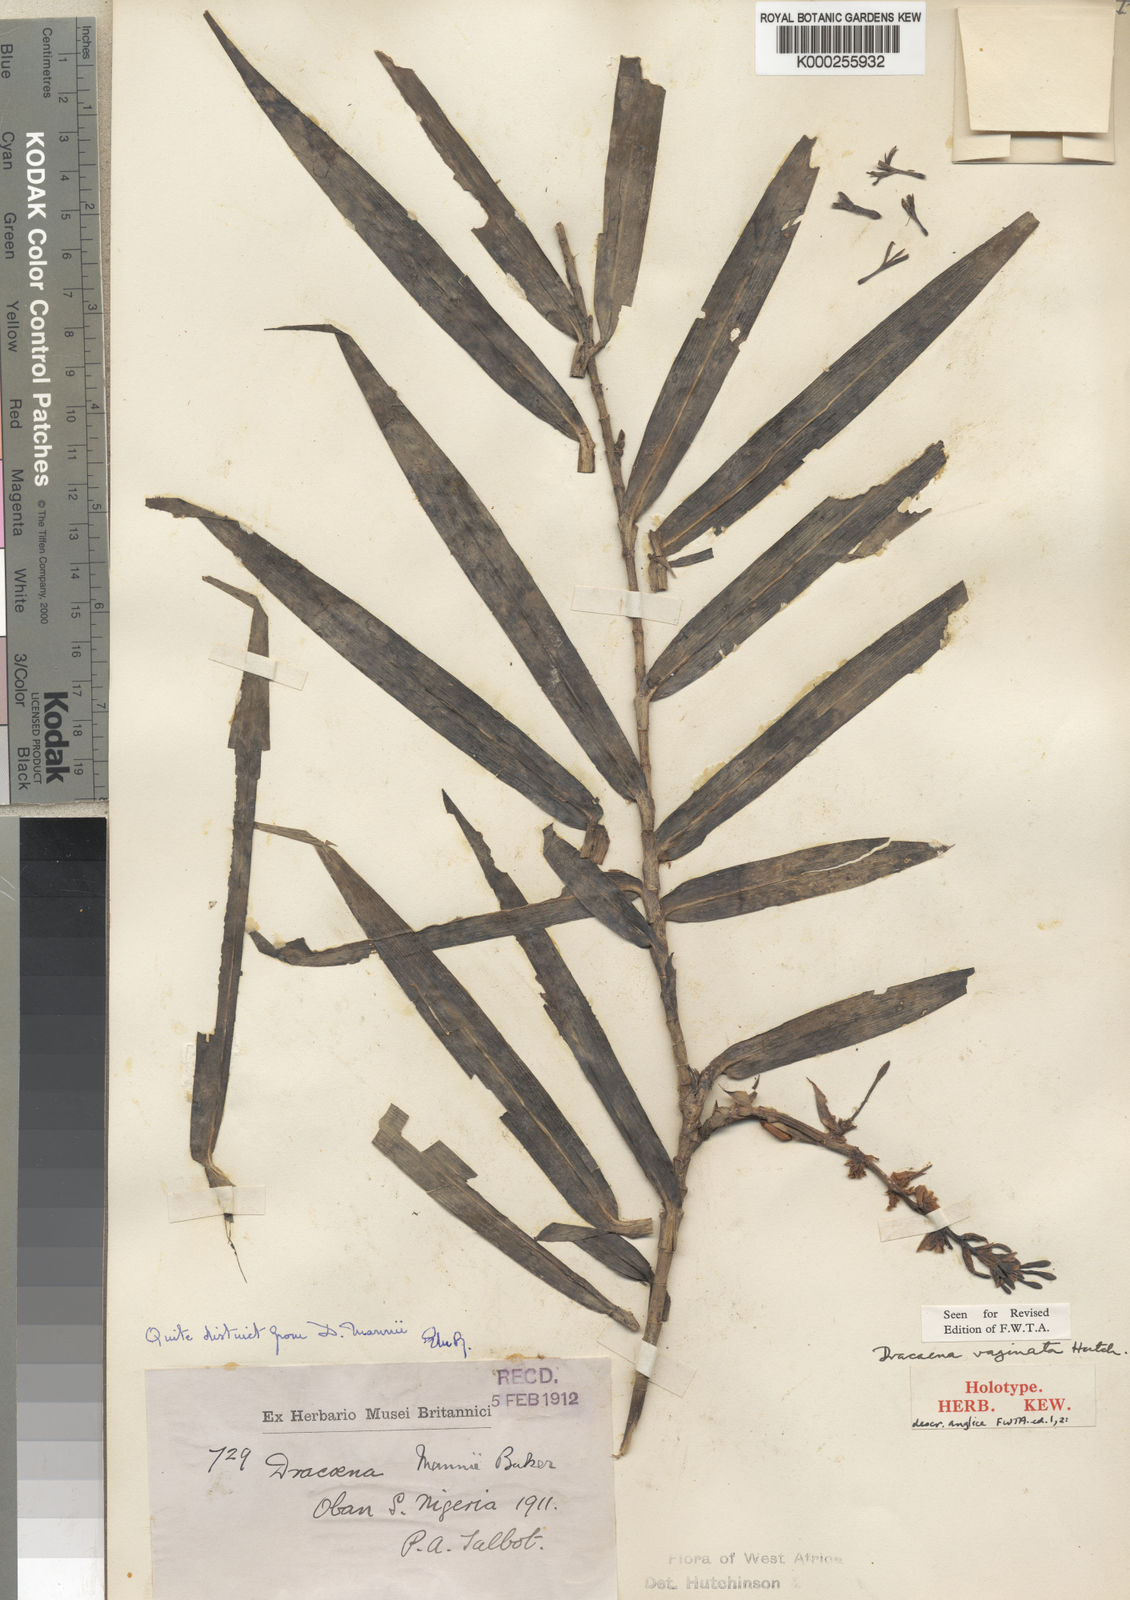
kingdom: Plantae
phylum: Tracheophyta
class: Liliopsida
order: Asparagales
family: Asparagaceae
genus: Dracaena
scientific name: Dracaena viridiflora
